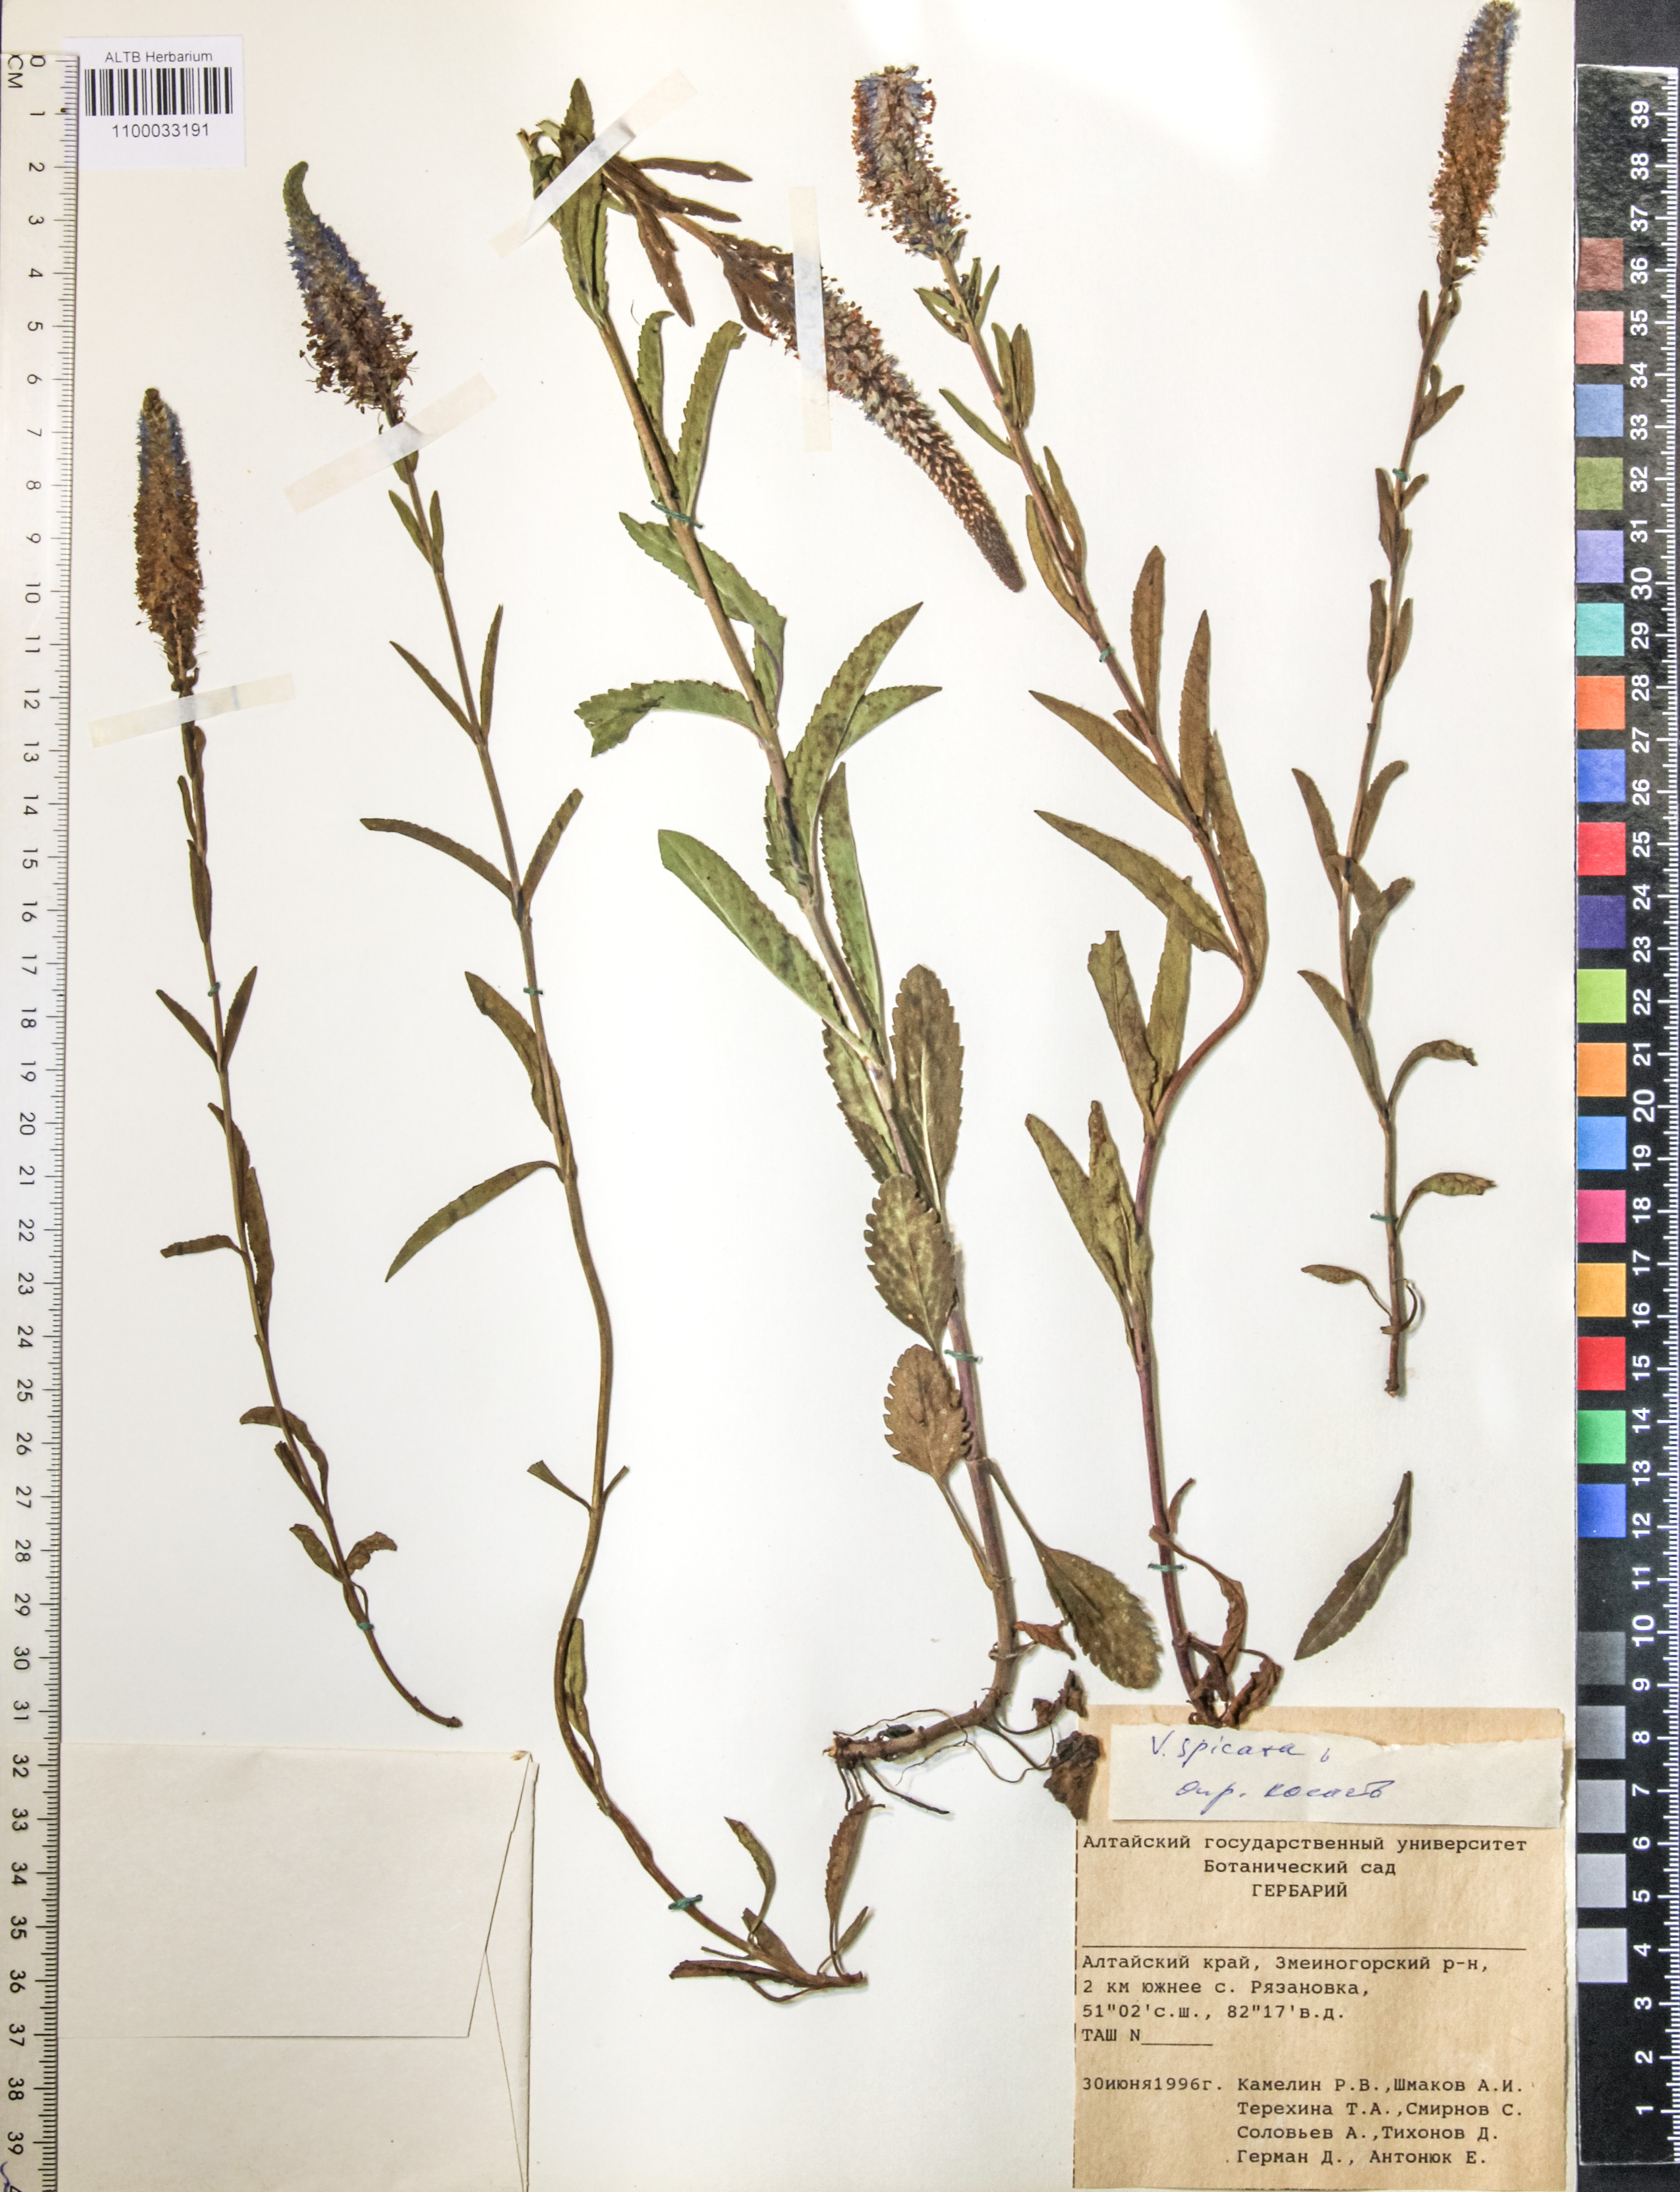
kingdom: Plantae
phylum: Tracheophyta
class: Magnoliopsida
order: Lamiales
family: Plantaginaceae
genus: Veronica
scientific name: Veronica spicata
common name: Spiked speedwell
